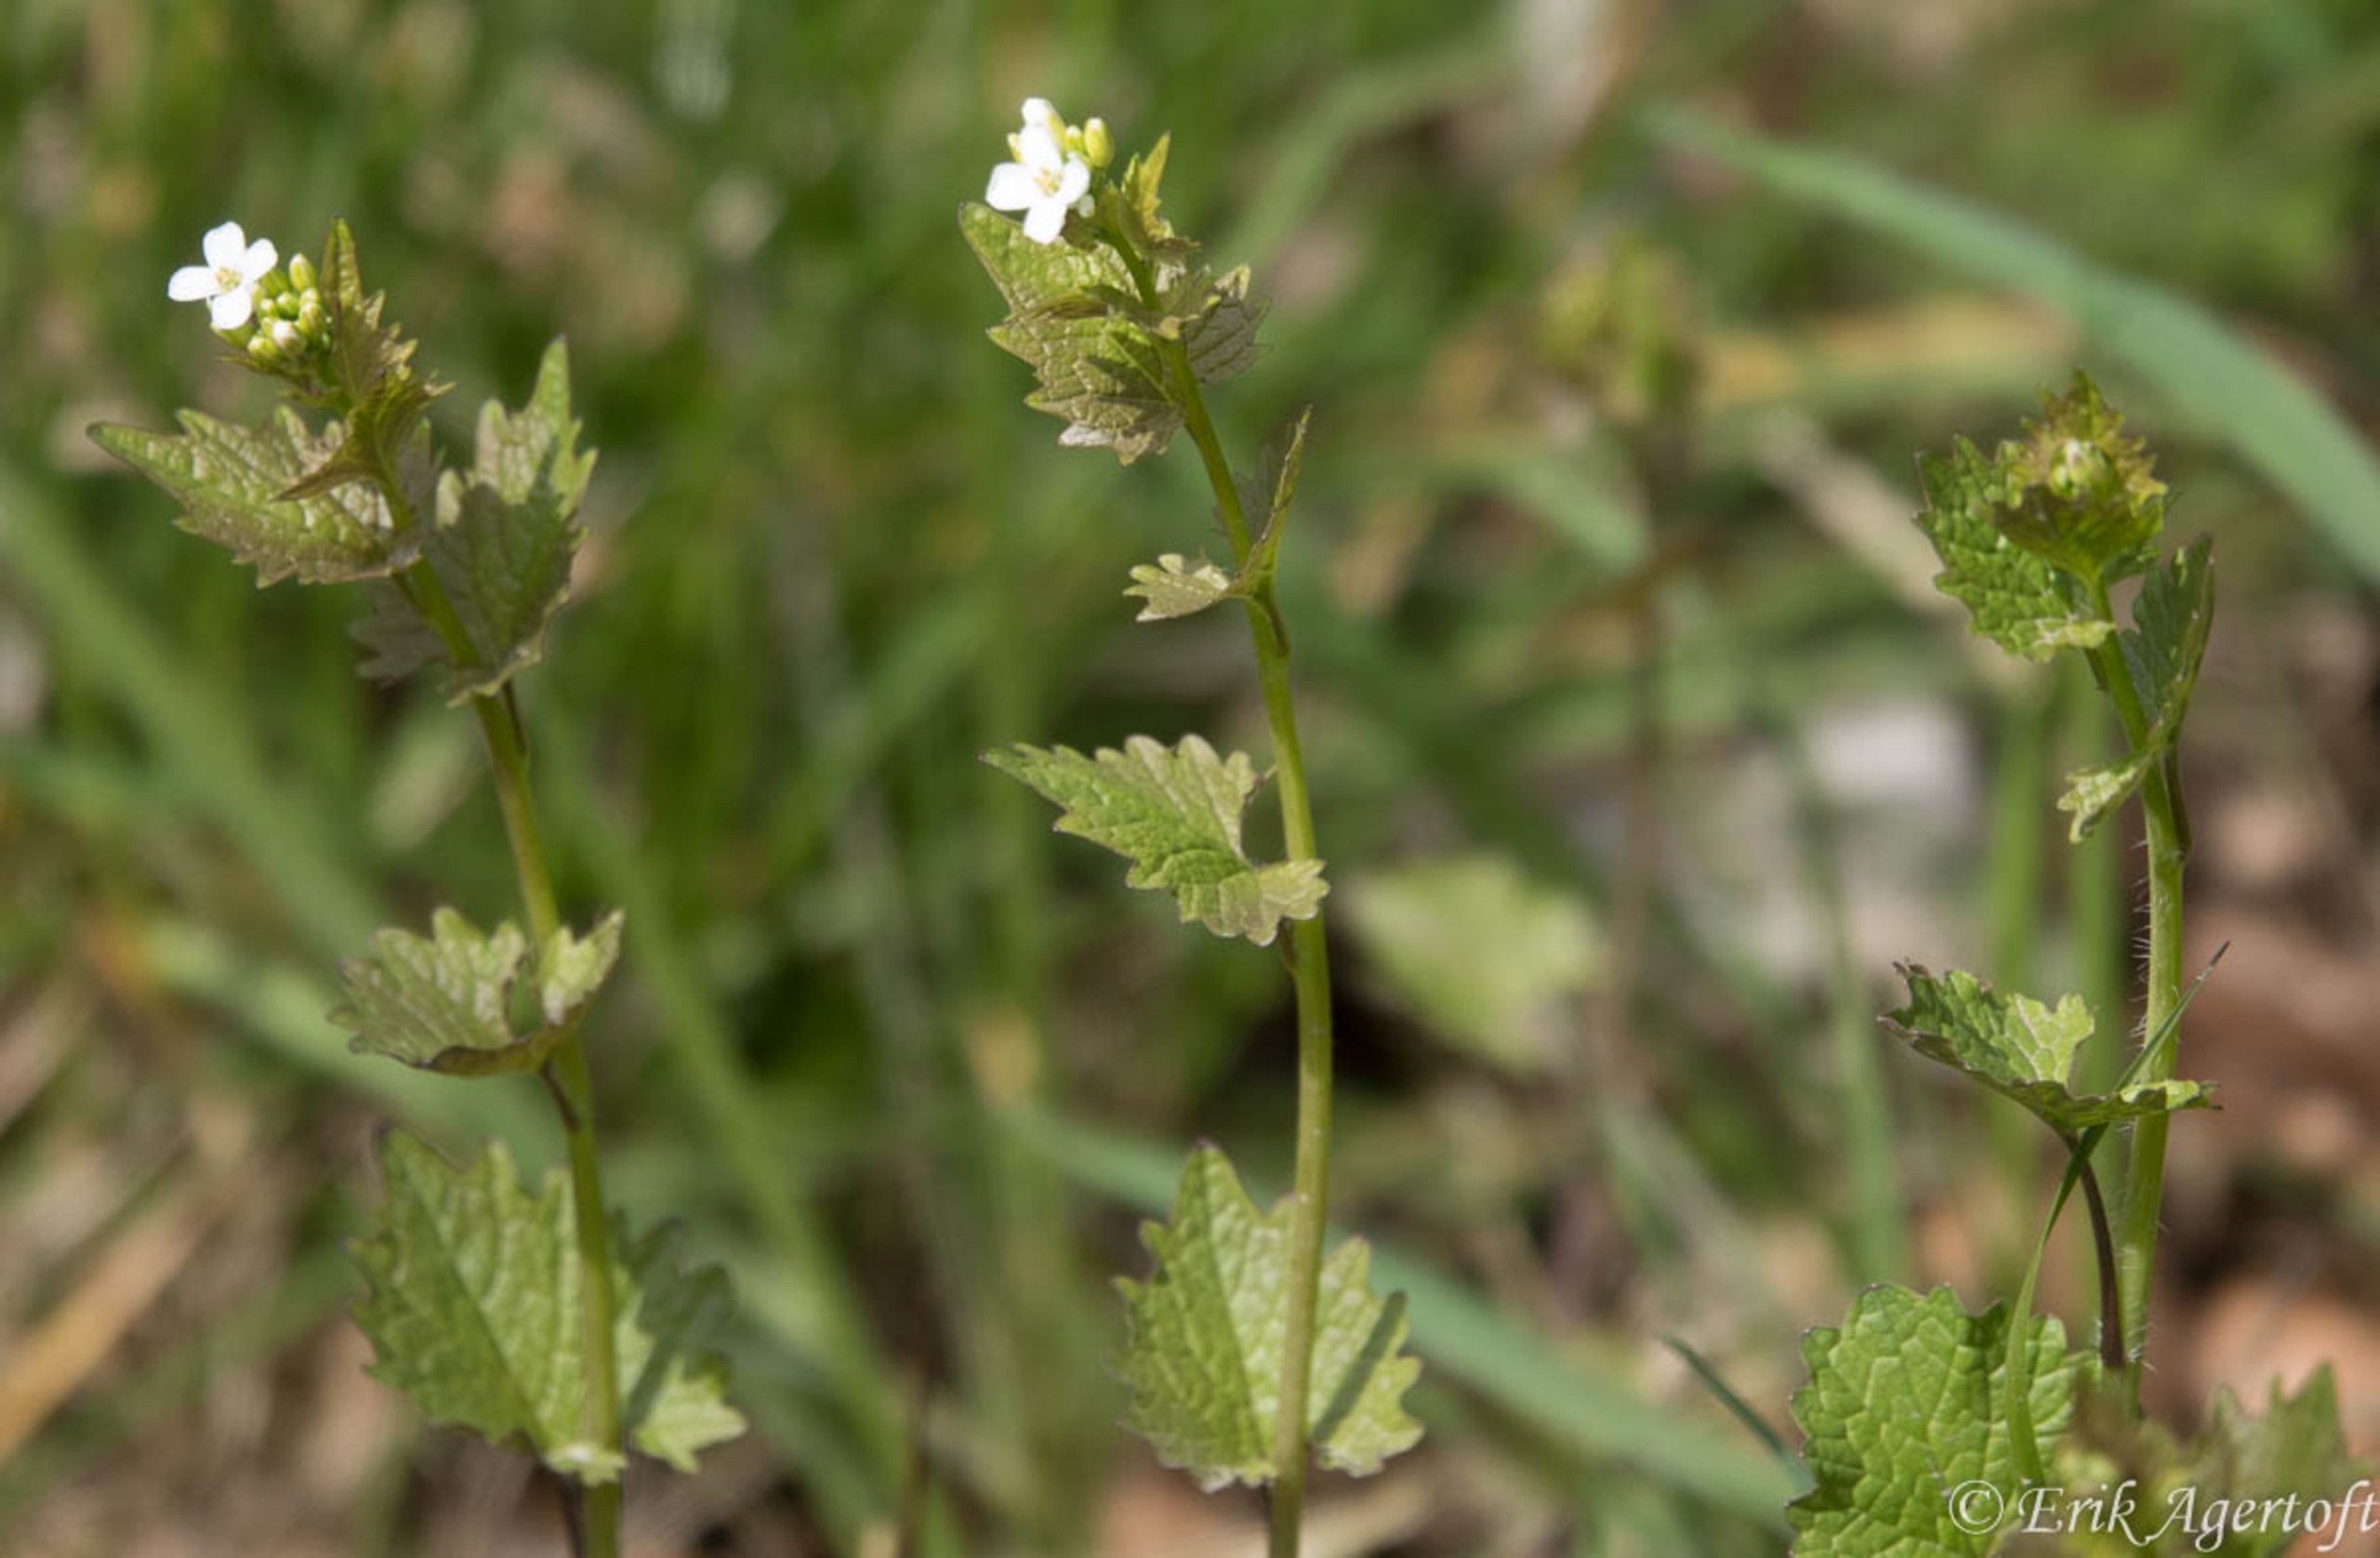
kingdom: Plantae
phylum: Tracheophyta
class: Magnoliopsida
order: Brassicales
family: Brassicaceae
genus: Alliaria
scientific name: Alliaria petiolata
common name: Løgkarse
